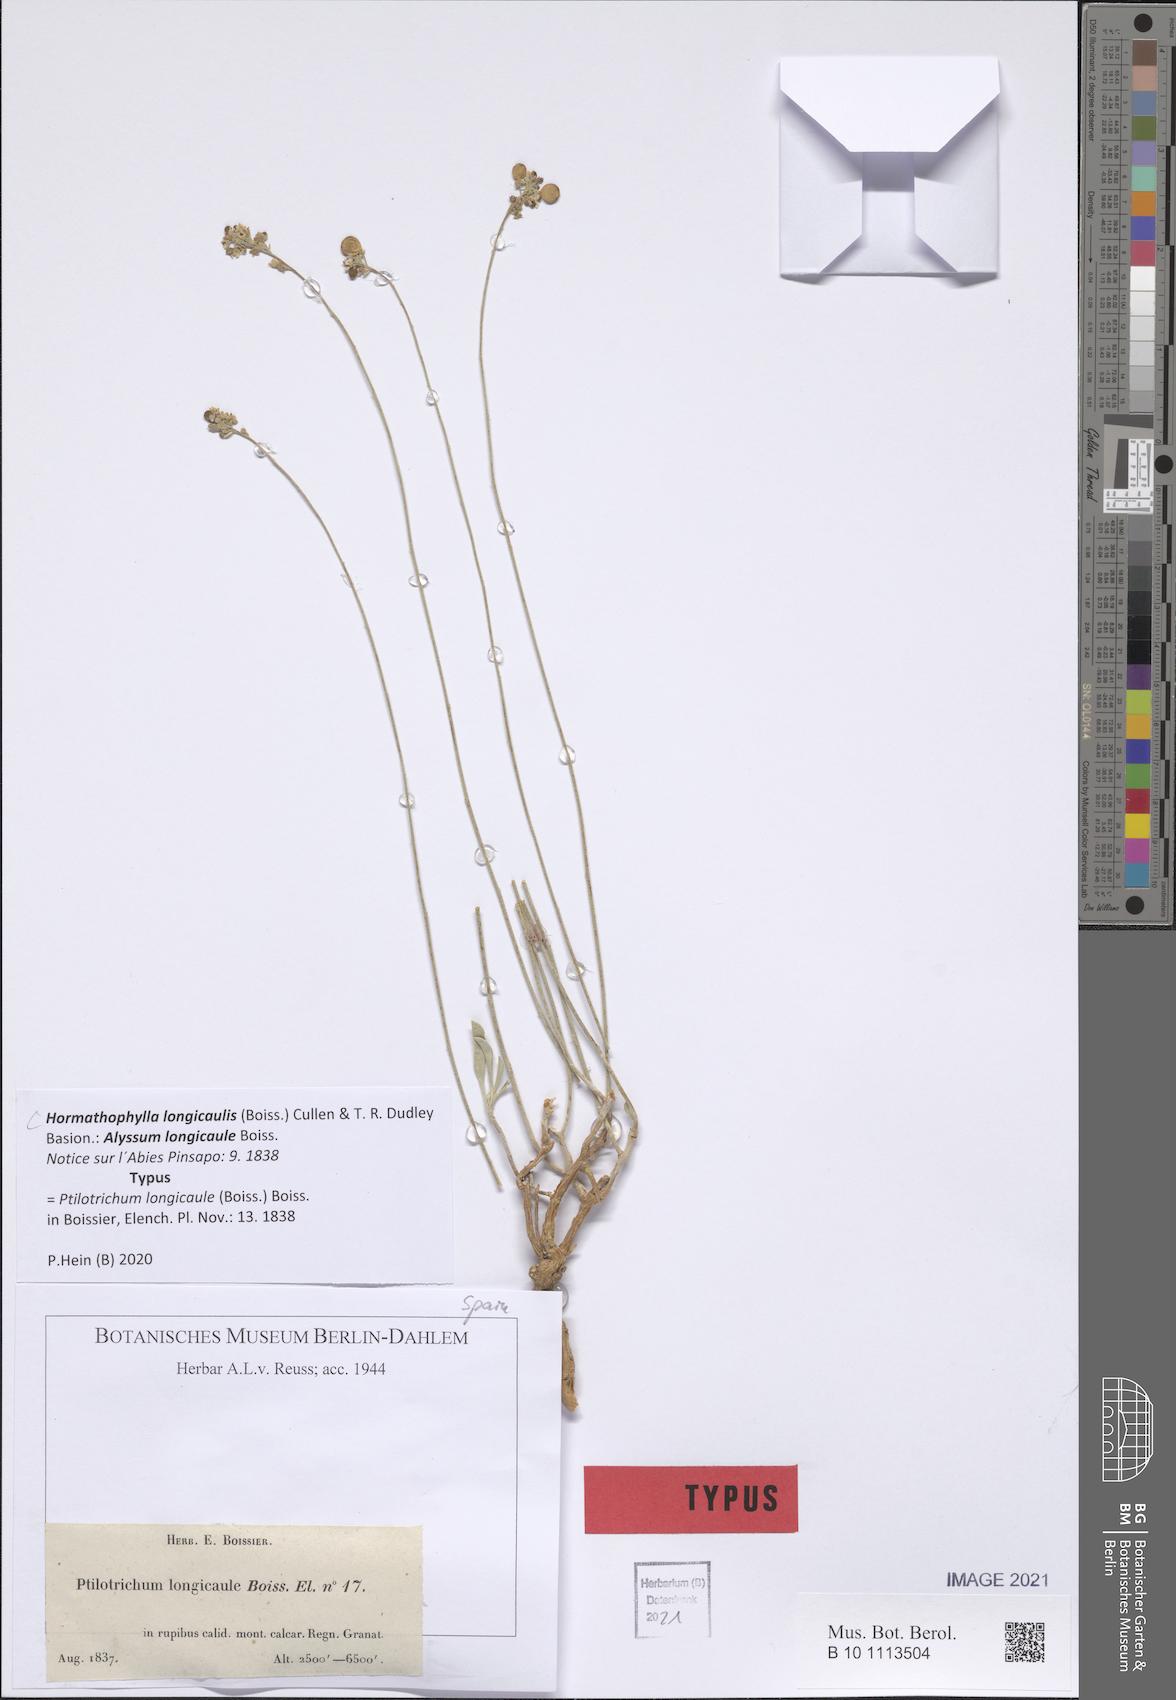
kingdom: Plantae
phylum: Tracheophyta
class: Magnoliopsida
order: Brassicales
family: Brassicaceae
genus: Hormathophylla
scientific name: Hormathophylla longicaulis
